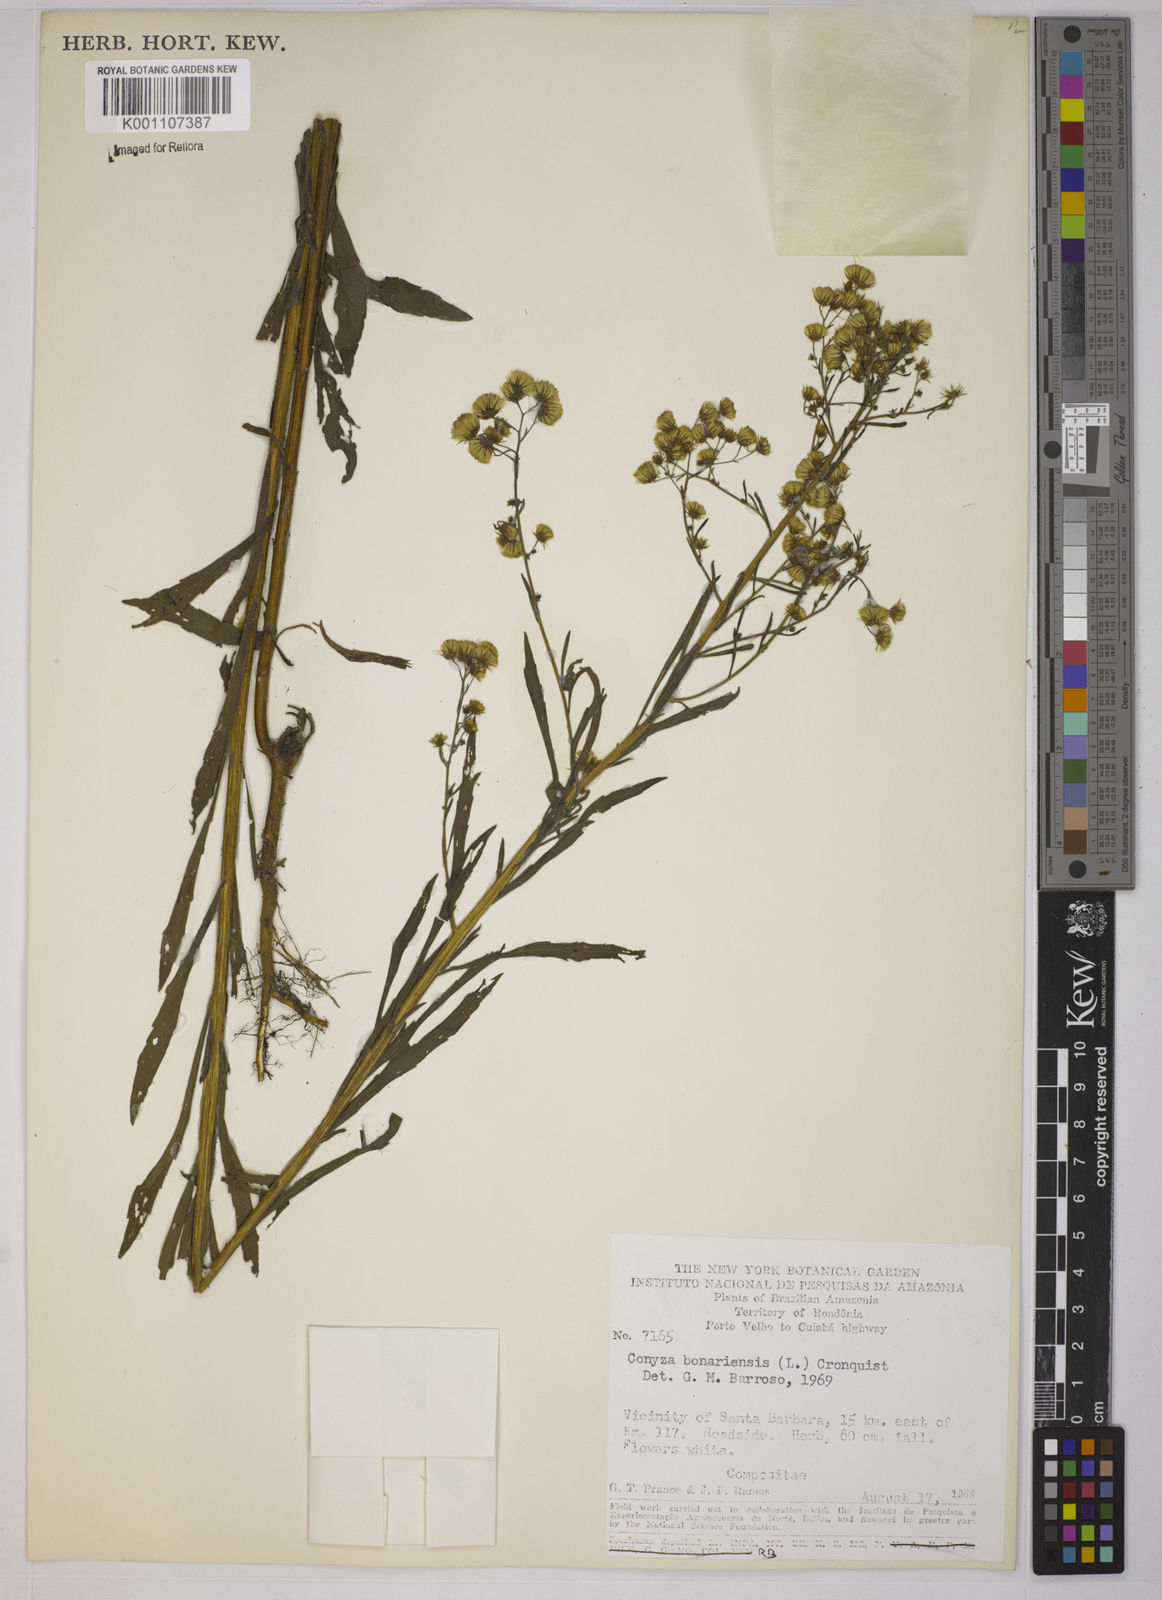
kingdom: Plantae
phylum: Tracheophyta
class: Magnoliopsida
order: Asterales
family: Asteraceae
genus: Erigeron
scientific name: Erigeron sumatrensis
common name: Daisy
